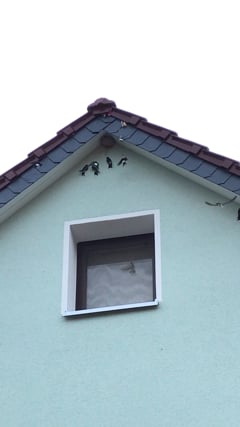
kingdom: Animalia
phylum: Chordata
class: Aves
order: Passeriformes
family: Hirundinidae
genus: Delichon
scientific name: Delichon urbicum
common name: Common house martin
